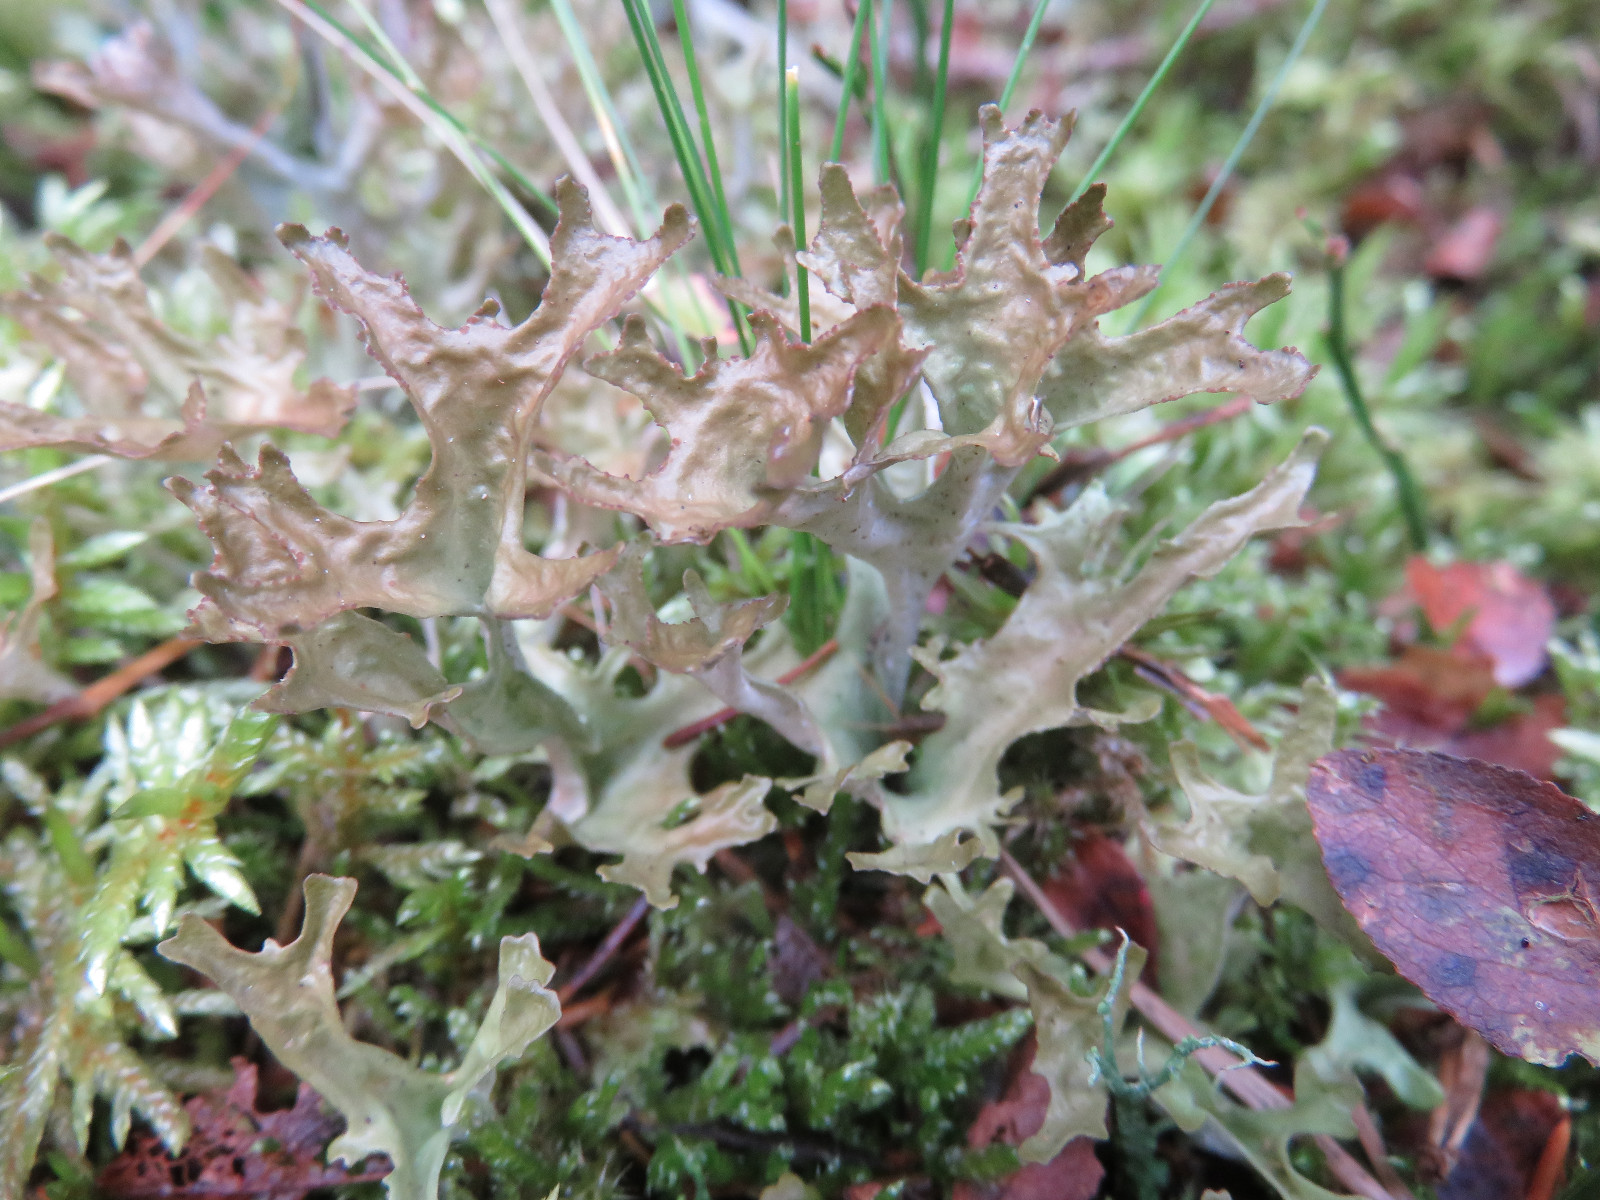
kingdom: Fungi
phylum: Ascomycota
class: Lecanoromycetes
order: Lecanorales
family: Parmeliaceae
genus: Cetraria
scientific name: Cetraria islandica
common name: islandsk kruslav
